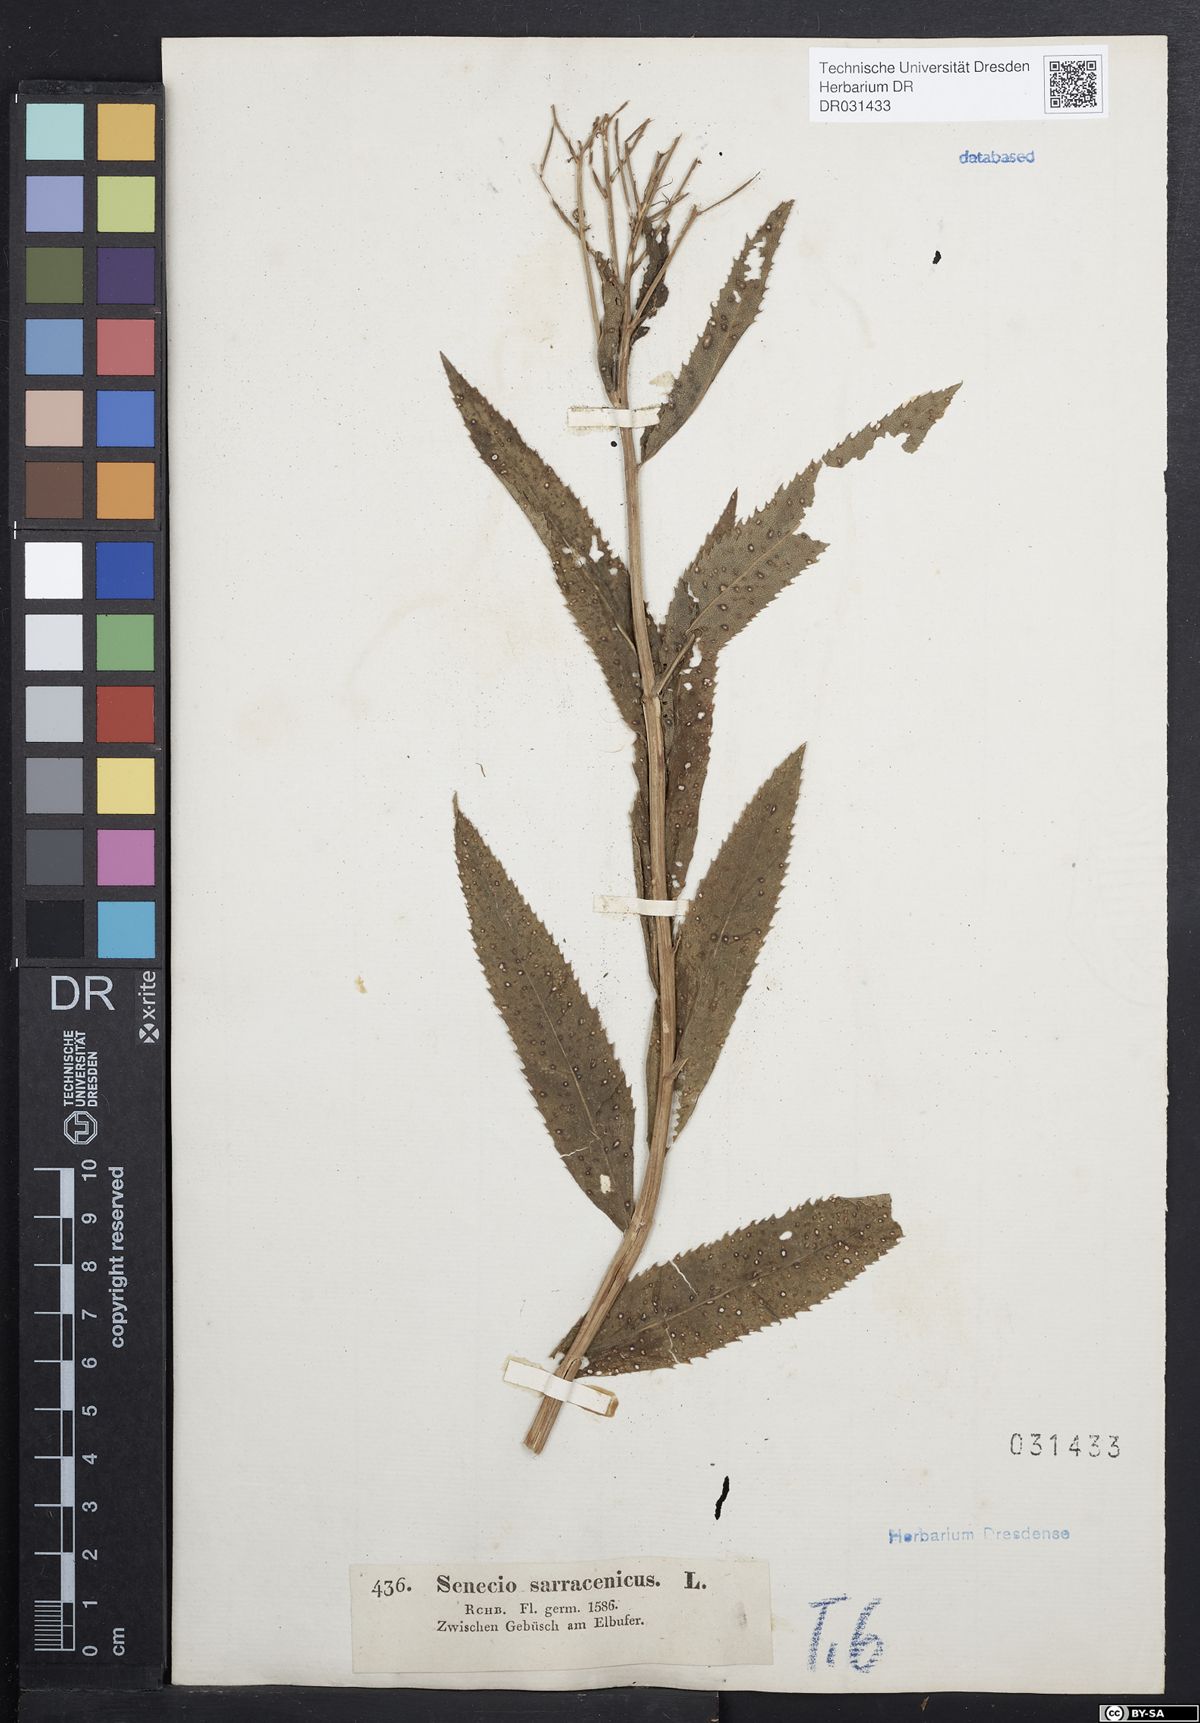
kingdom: Plantae
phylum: Tracheophyta
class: Magnoliopsida
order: Asterales
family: Asteraceae
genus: Senecio
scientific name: Senecio saracenicus
